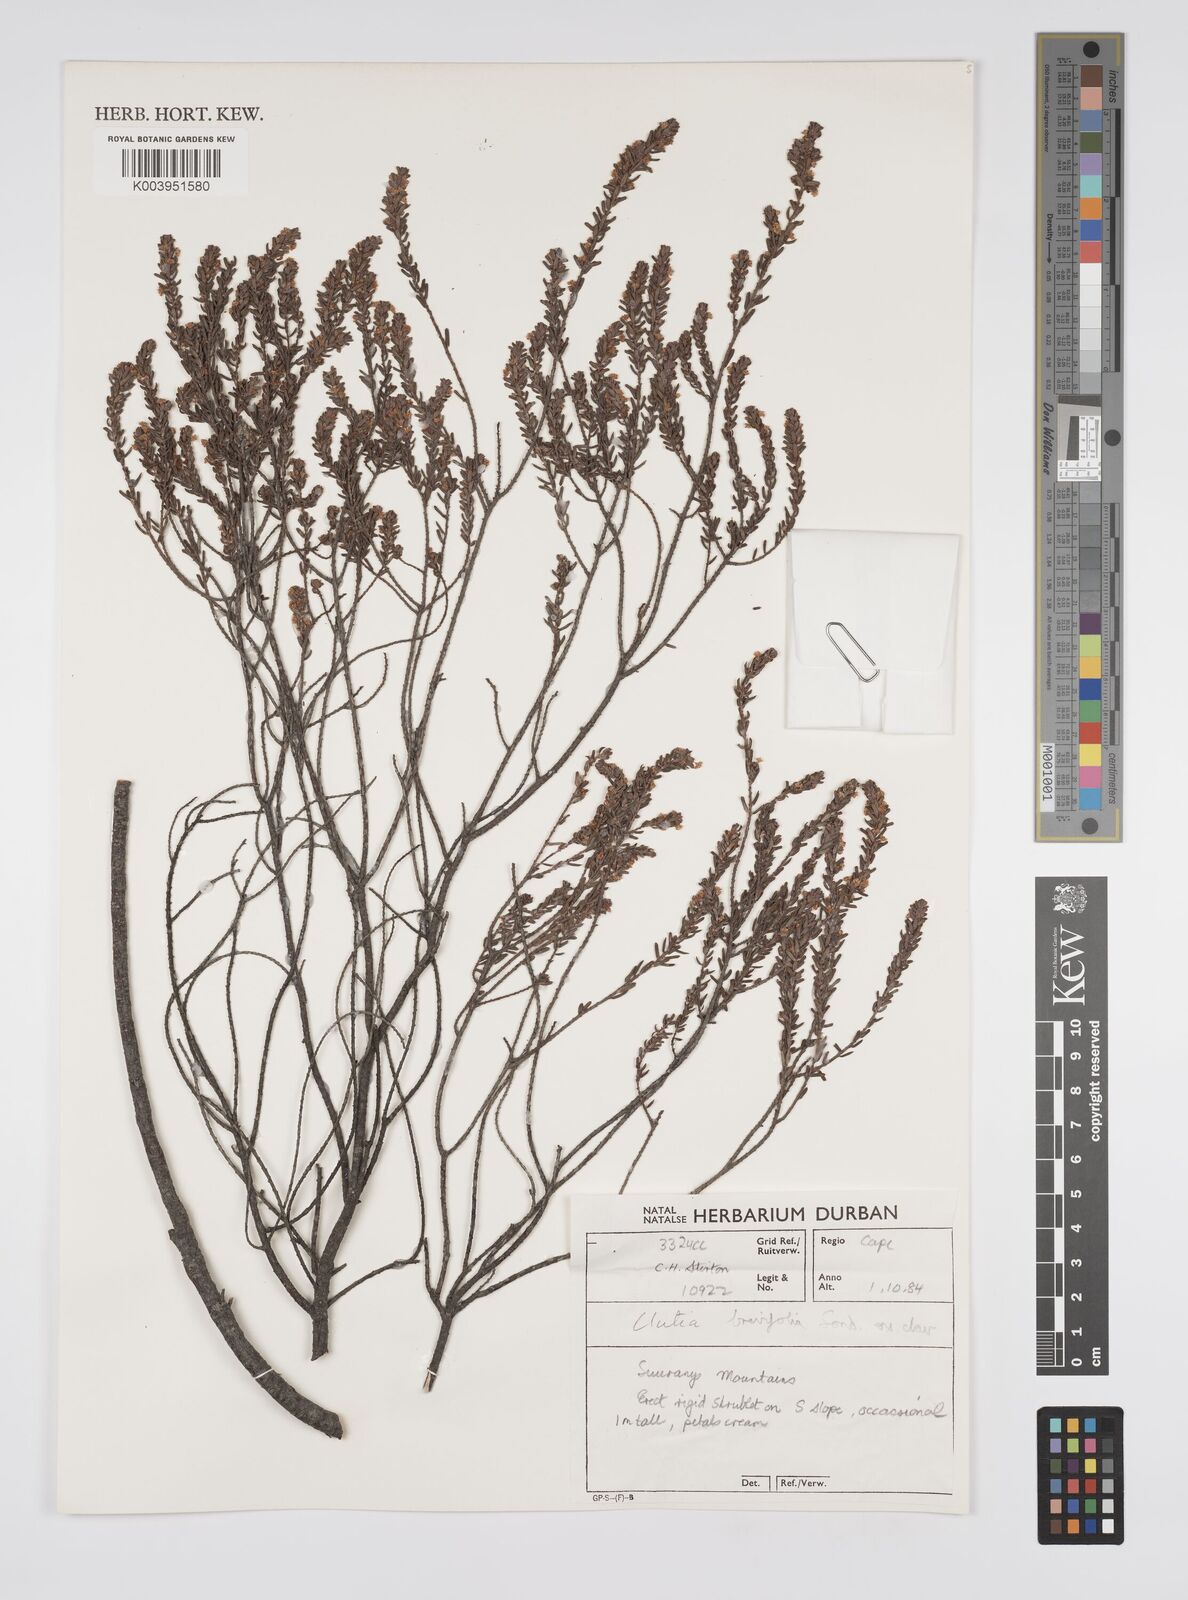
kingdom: Plantae
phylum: Tracheophyta
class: Magnoliopsida
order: Malpighiales
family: Peraceae
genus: Clutia
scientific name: Clutia brevifolia
